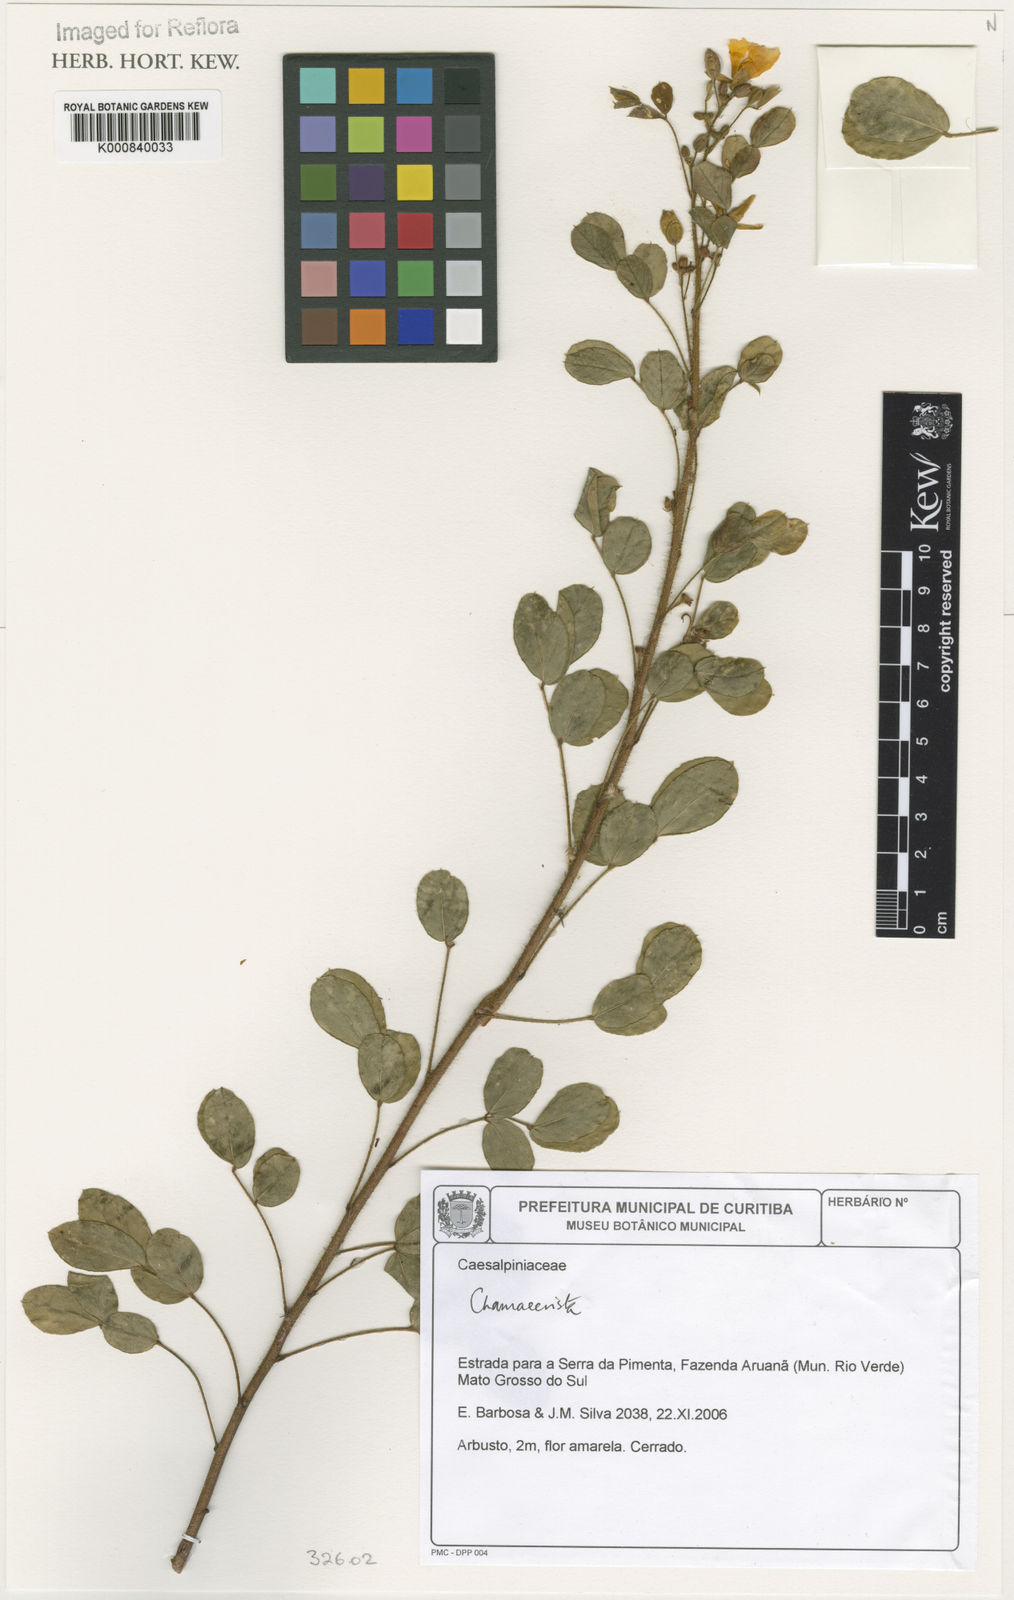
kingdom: Plantae
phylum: Tracheophyta
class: Magnoliopsida
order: Fabales
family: Fabaceae
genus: Chamaecrista
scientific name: Chamaecrista
